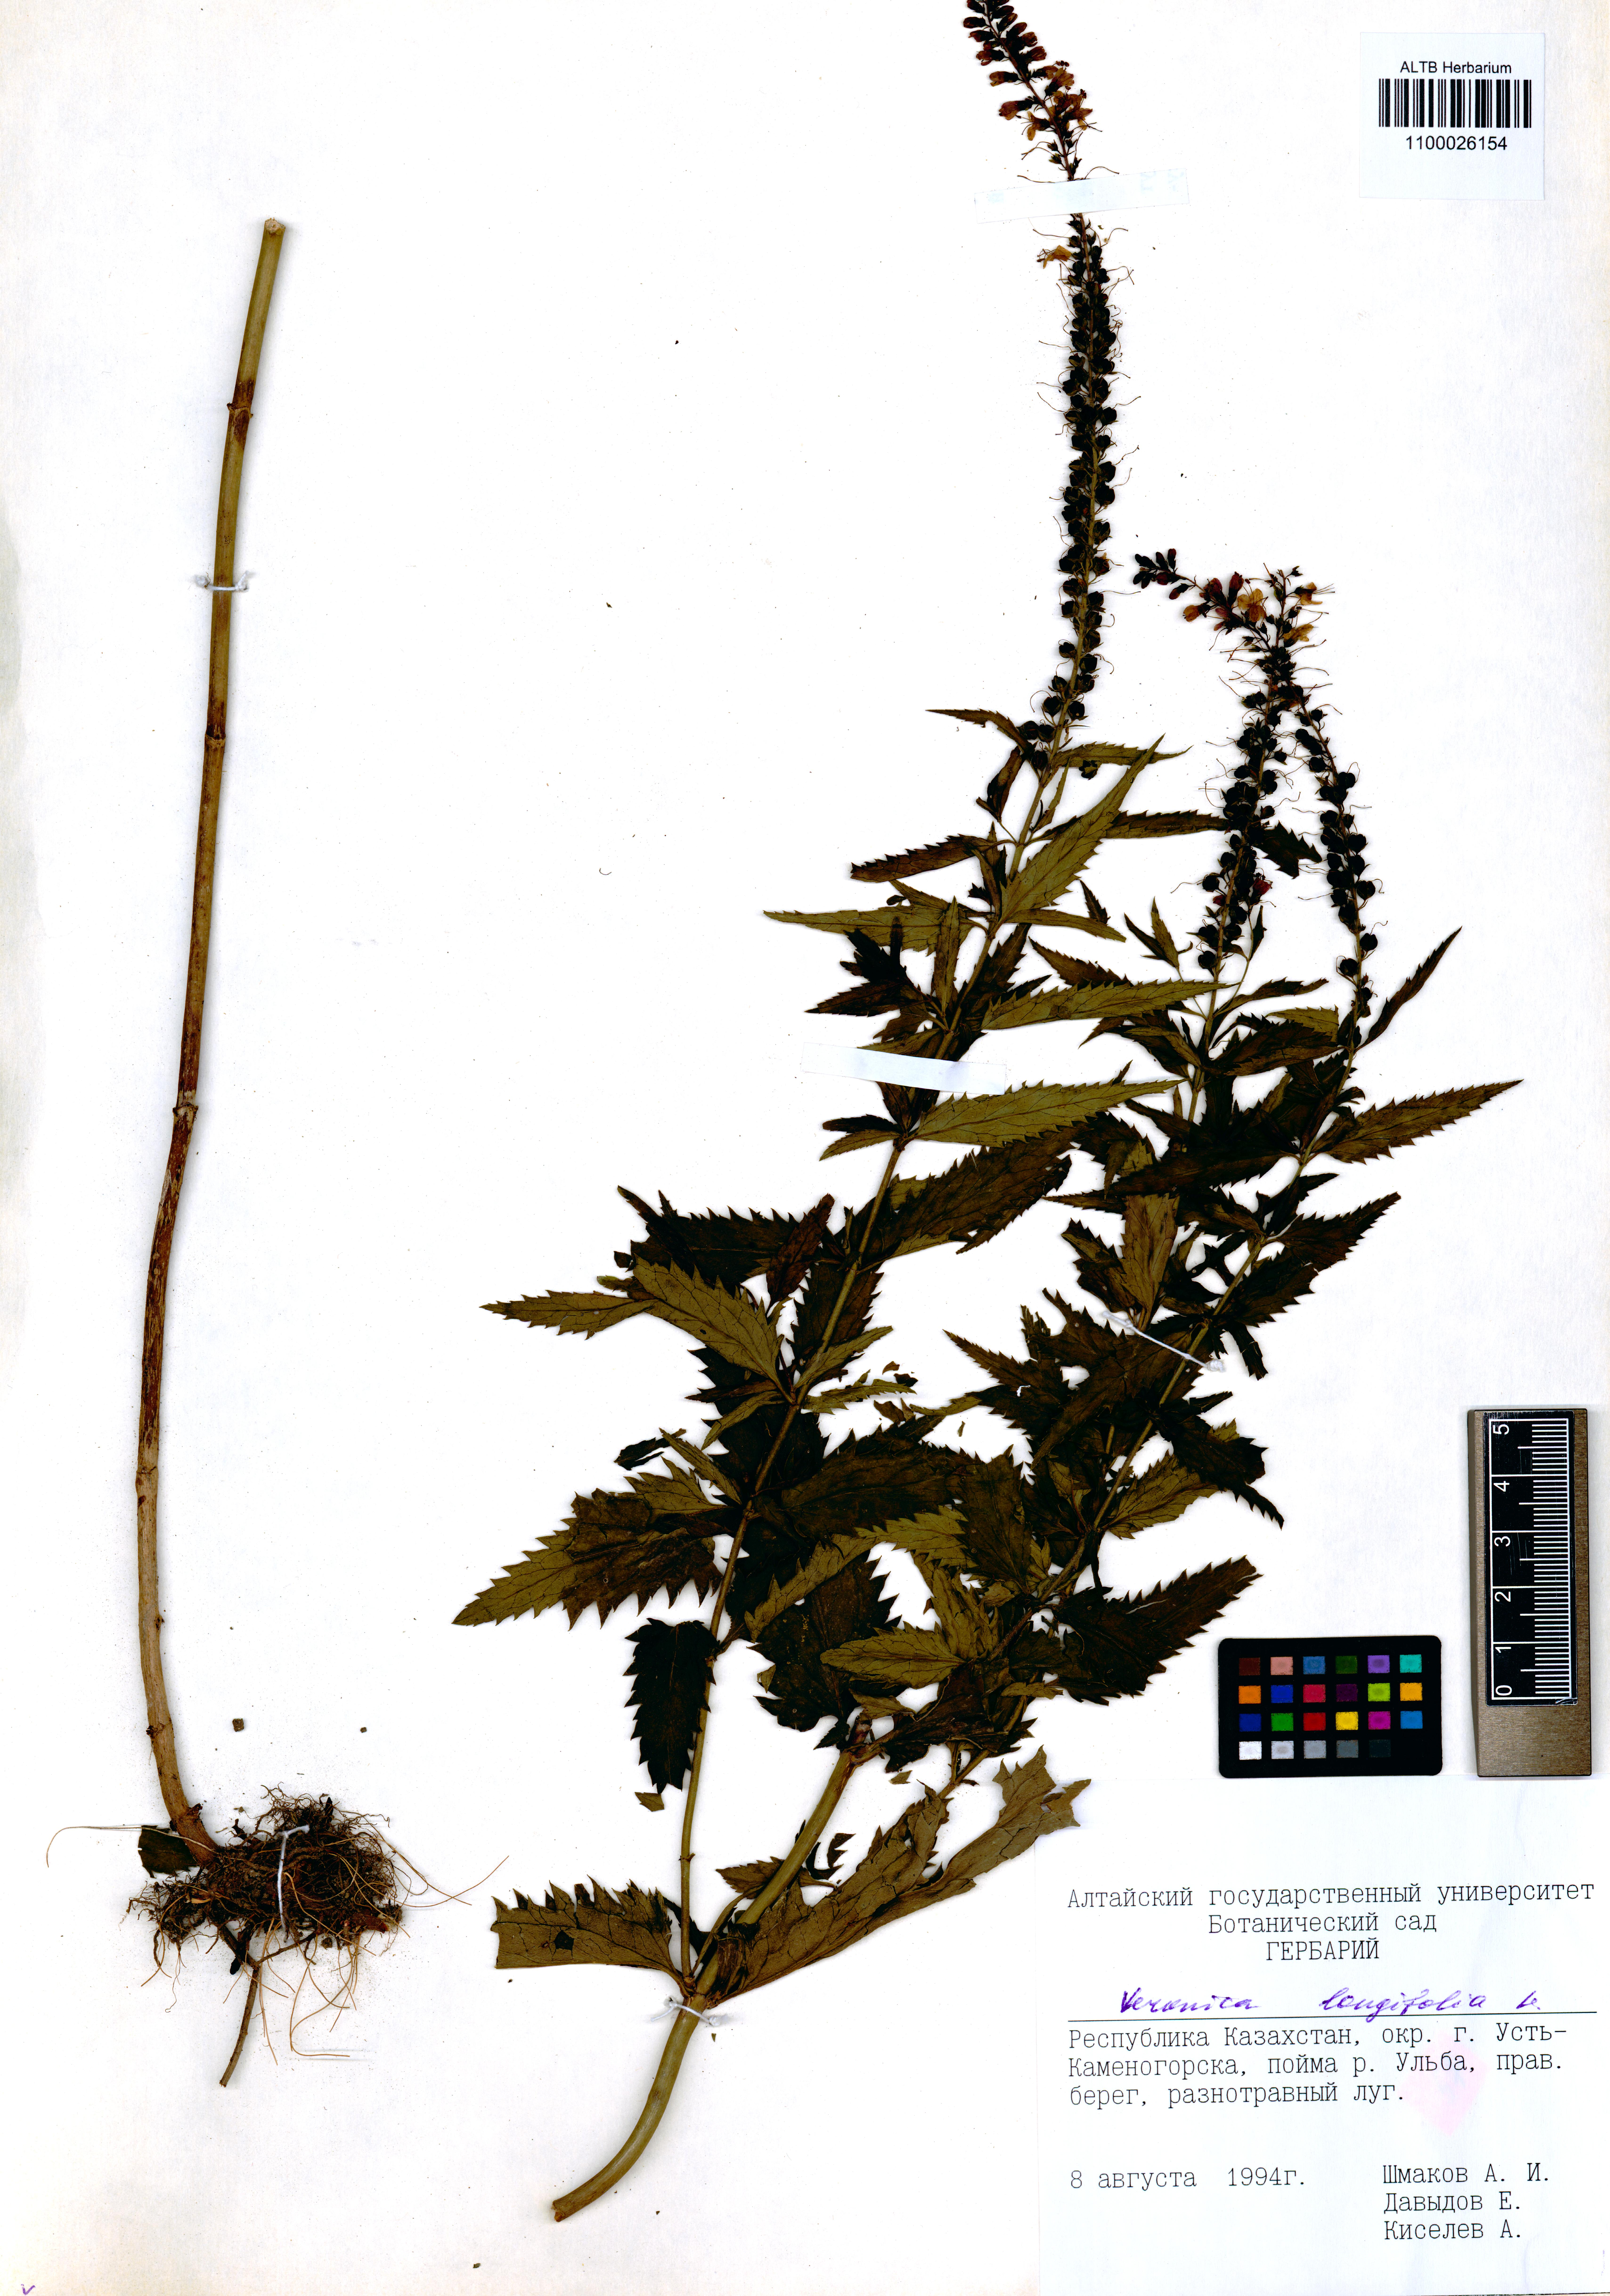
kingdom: Plantae
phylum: Tracheophyta
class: Magnoliopsida
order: Lamiales
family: Plantaginaceae
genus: Veronica
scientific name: Veronica longifolia
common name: Garden speedwell
